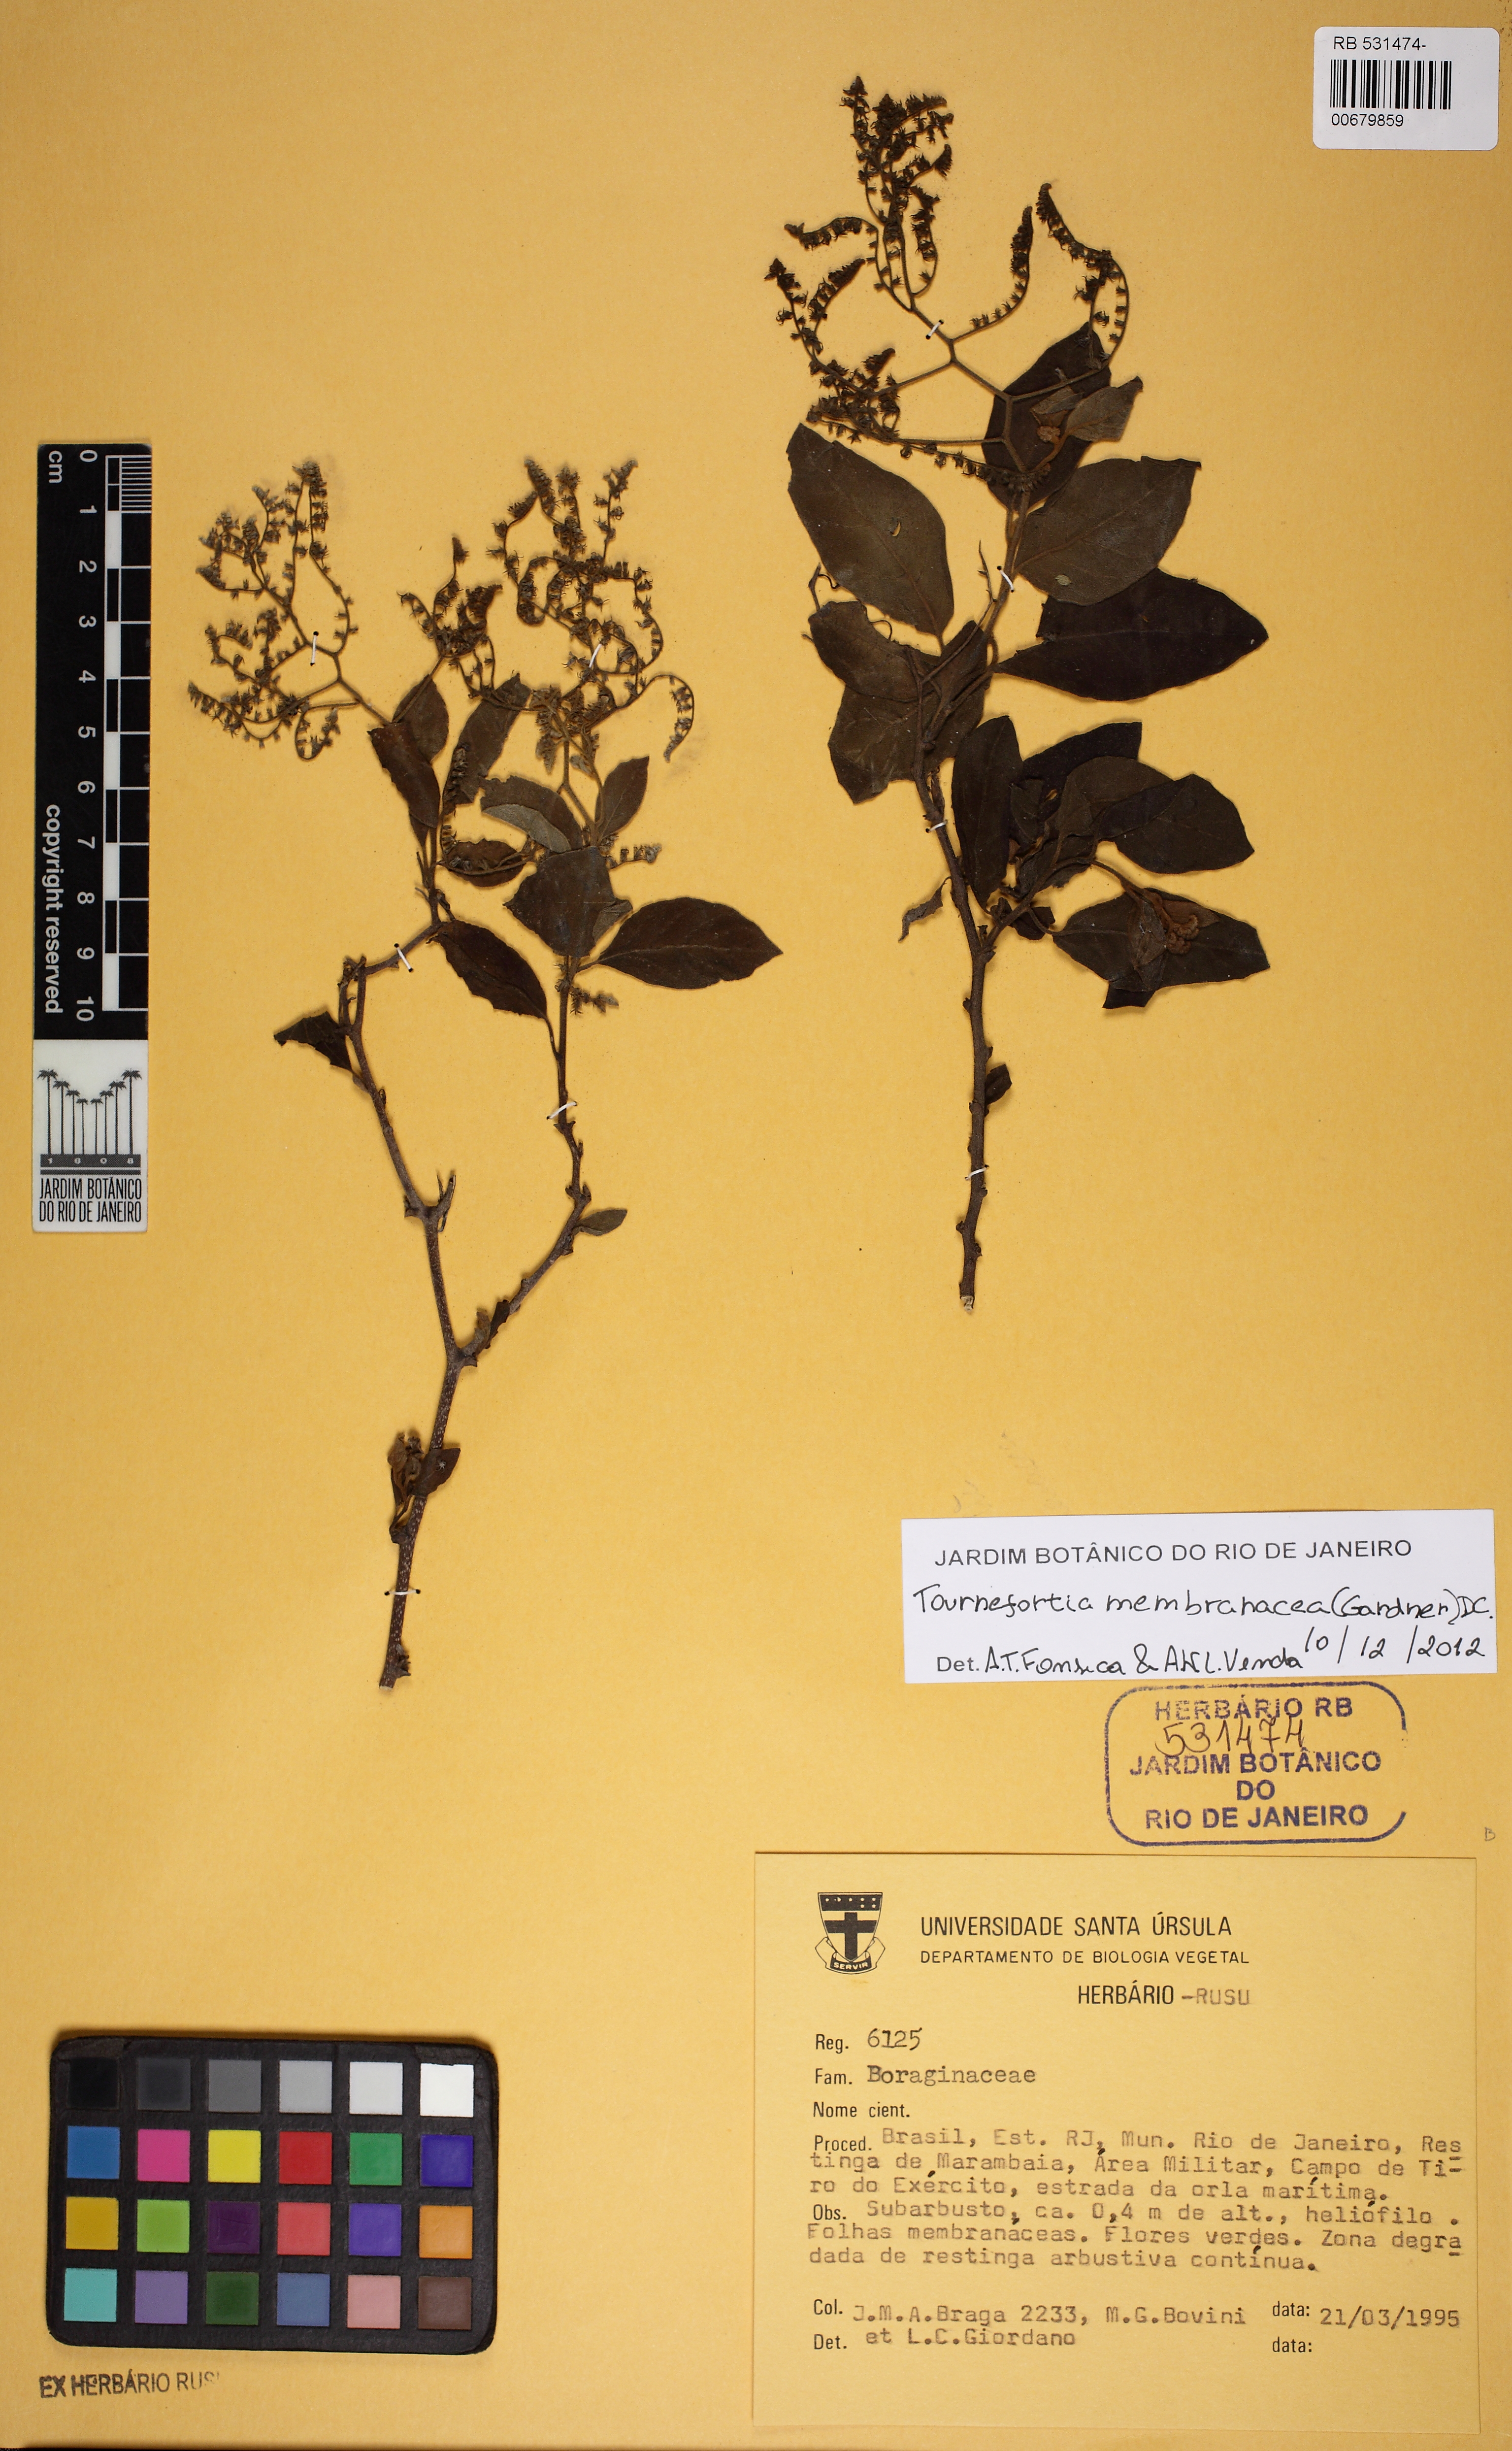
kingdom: Plantae
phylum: Tracheophyta
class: Magnoliopsida
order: Boraginales
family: Heliotropiaceae
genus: Myriopus
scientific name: Myriopus membranaceus
